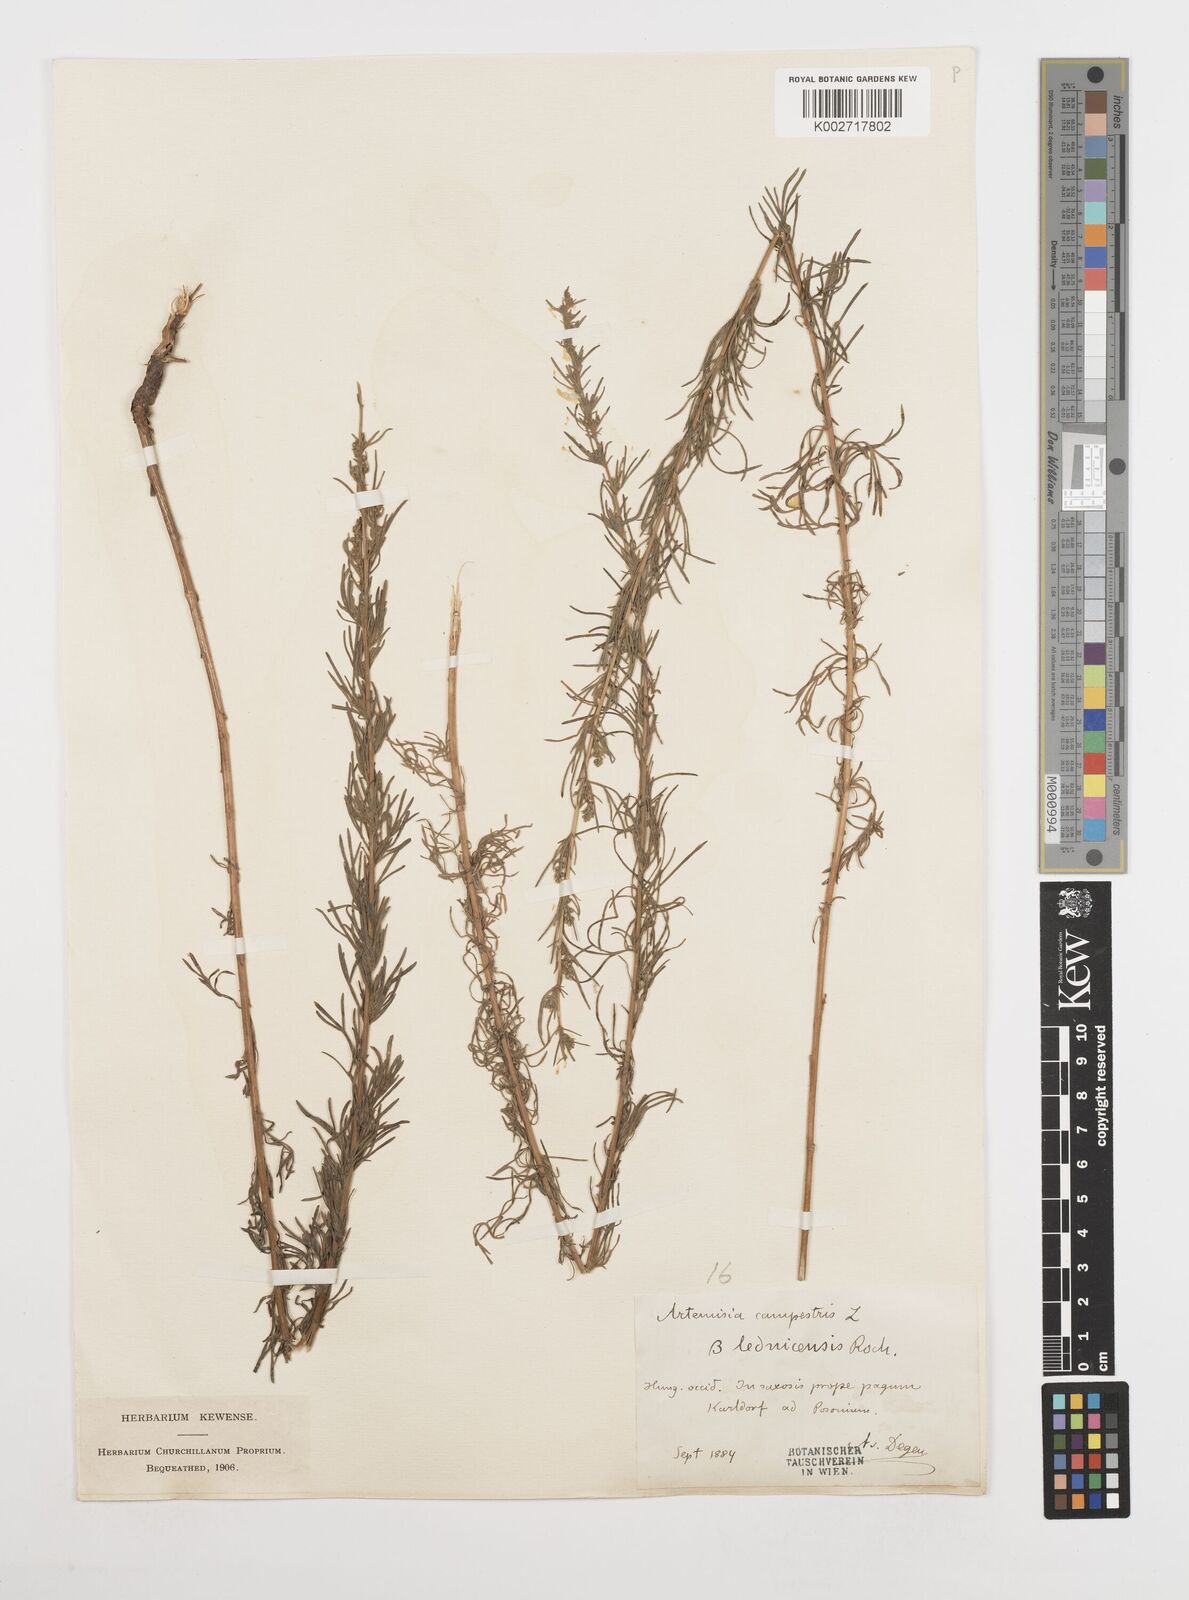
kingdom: Plantae
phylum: Tracheophyta
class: Magnoliopsida
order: Asterales
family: Asteraceae
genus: Artemisia
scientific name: Artemisia campestris
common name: Field wormwood
